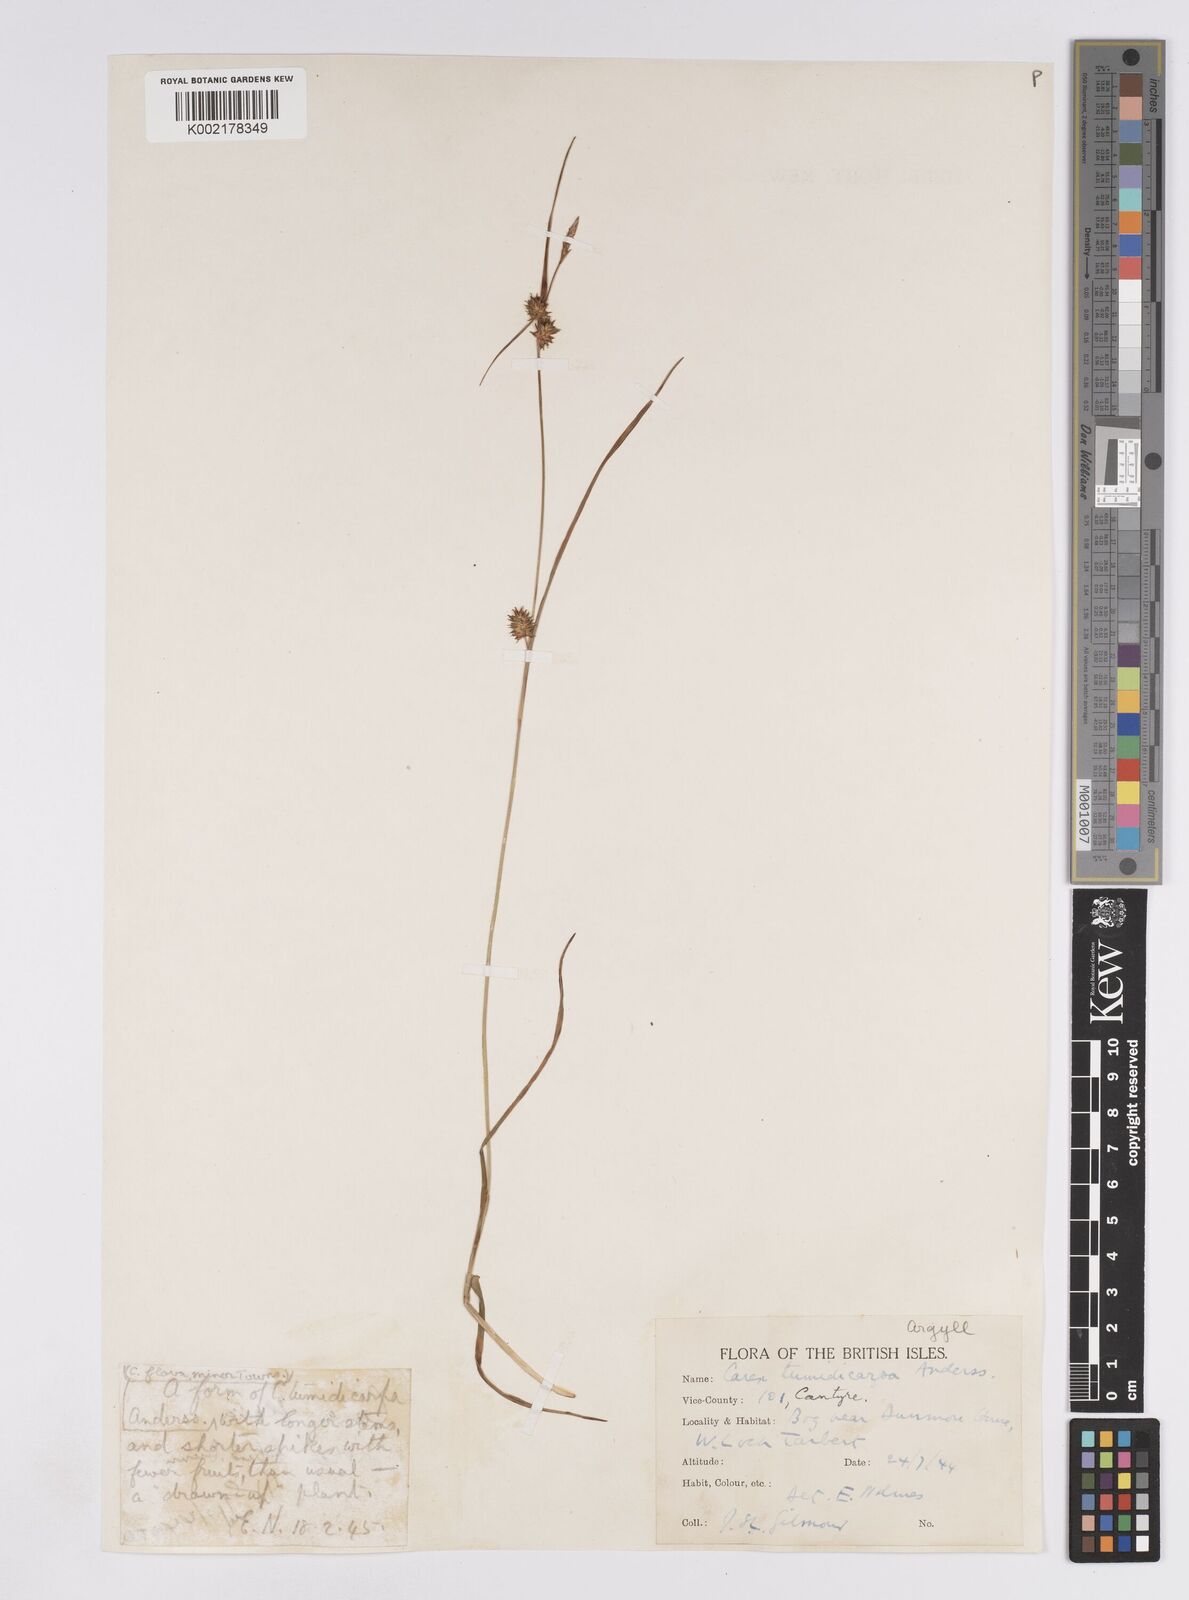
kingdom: Plantae
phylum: Tracheophyta
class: Liliopsida
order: Poales
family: Cyperaceae
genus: Carex
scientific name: Carex demissa
